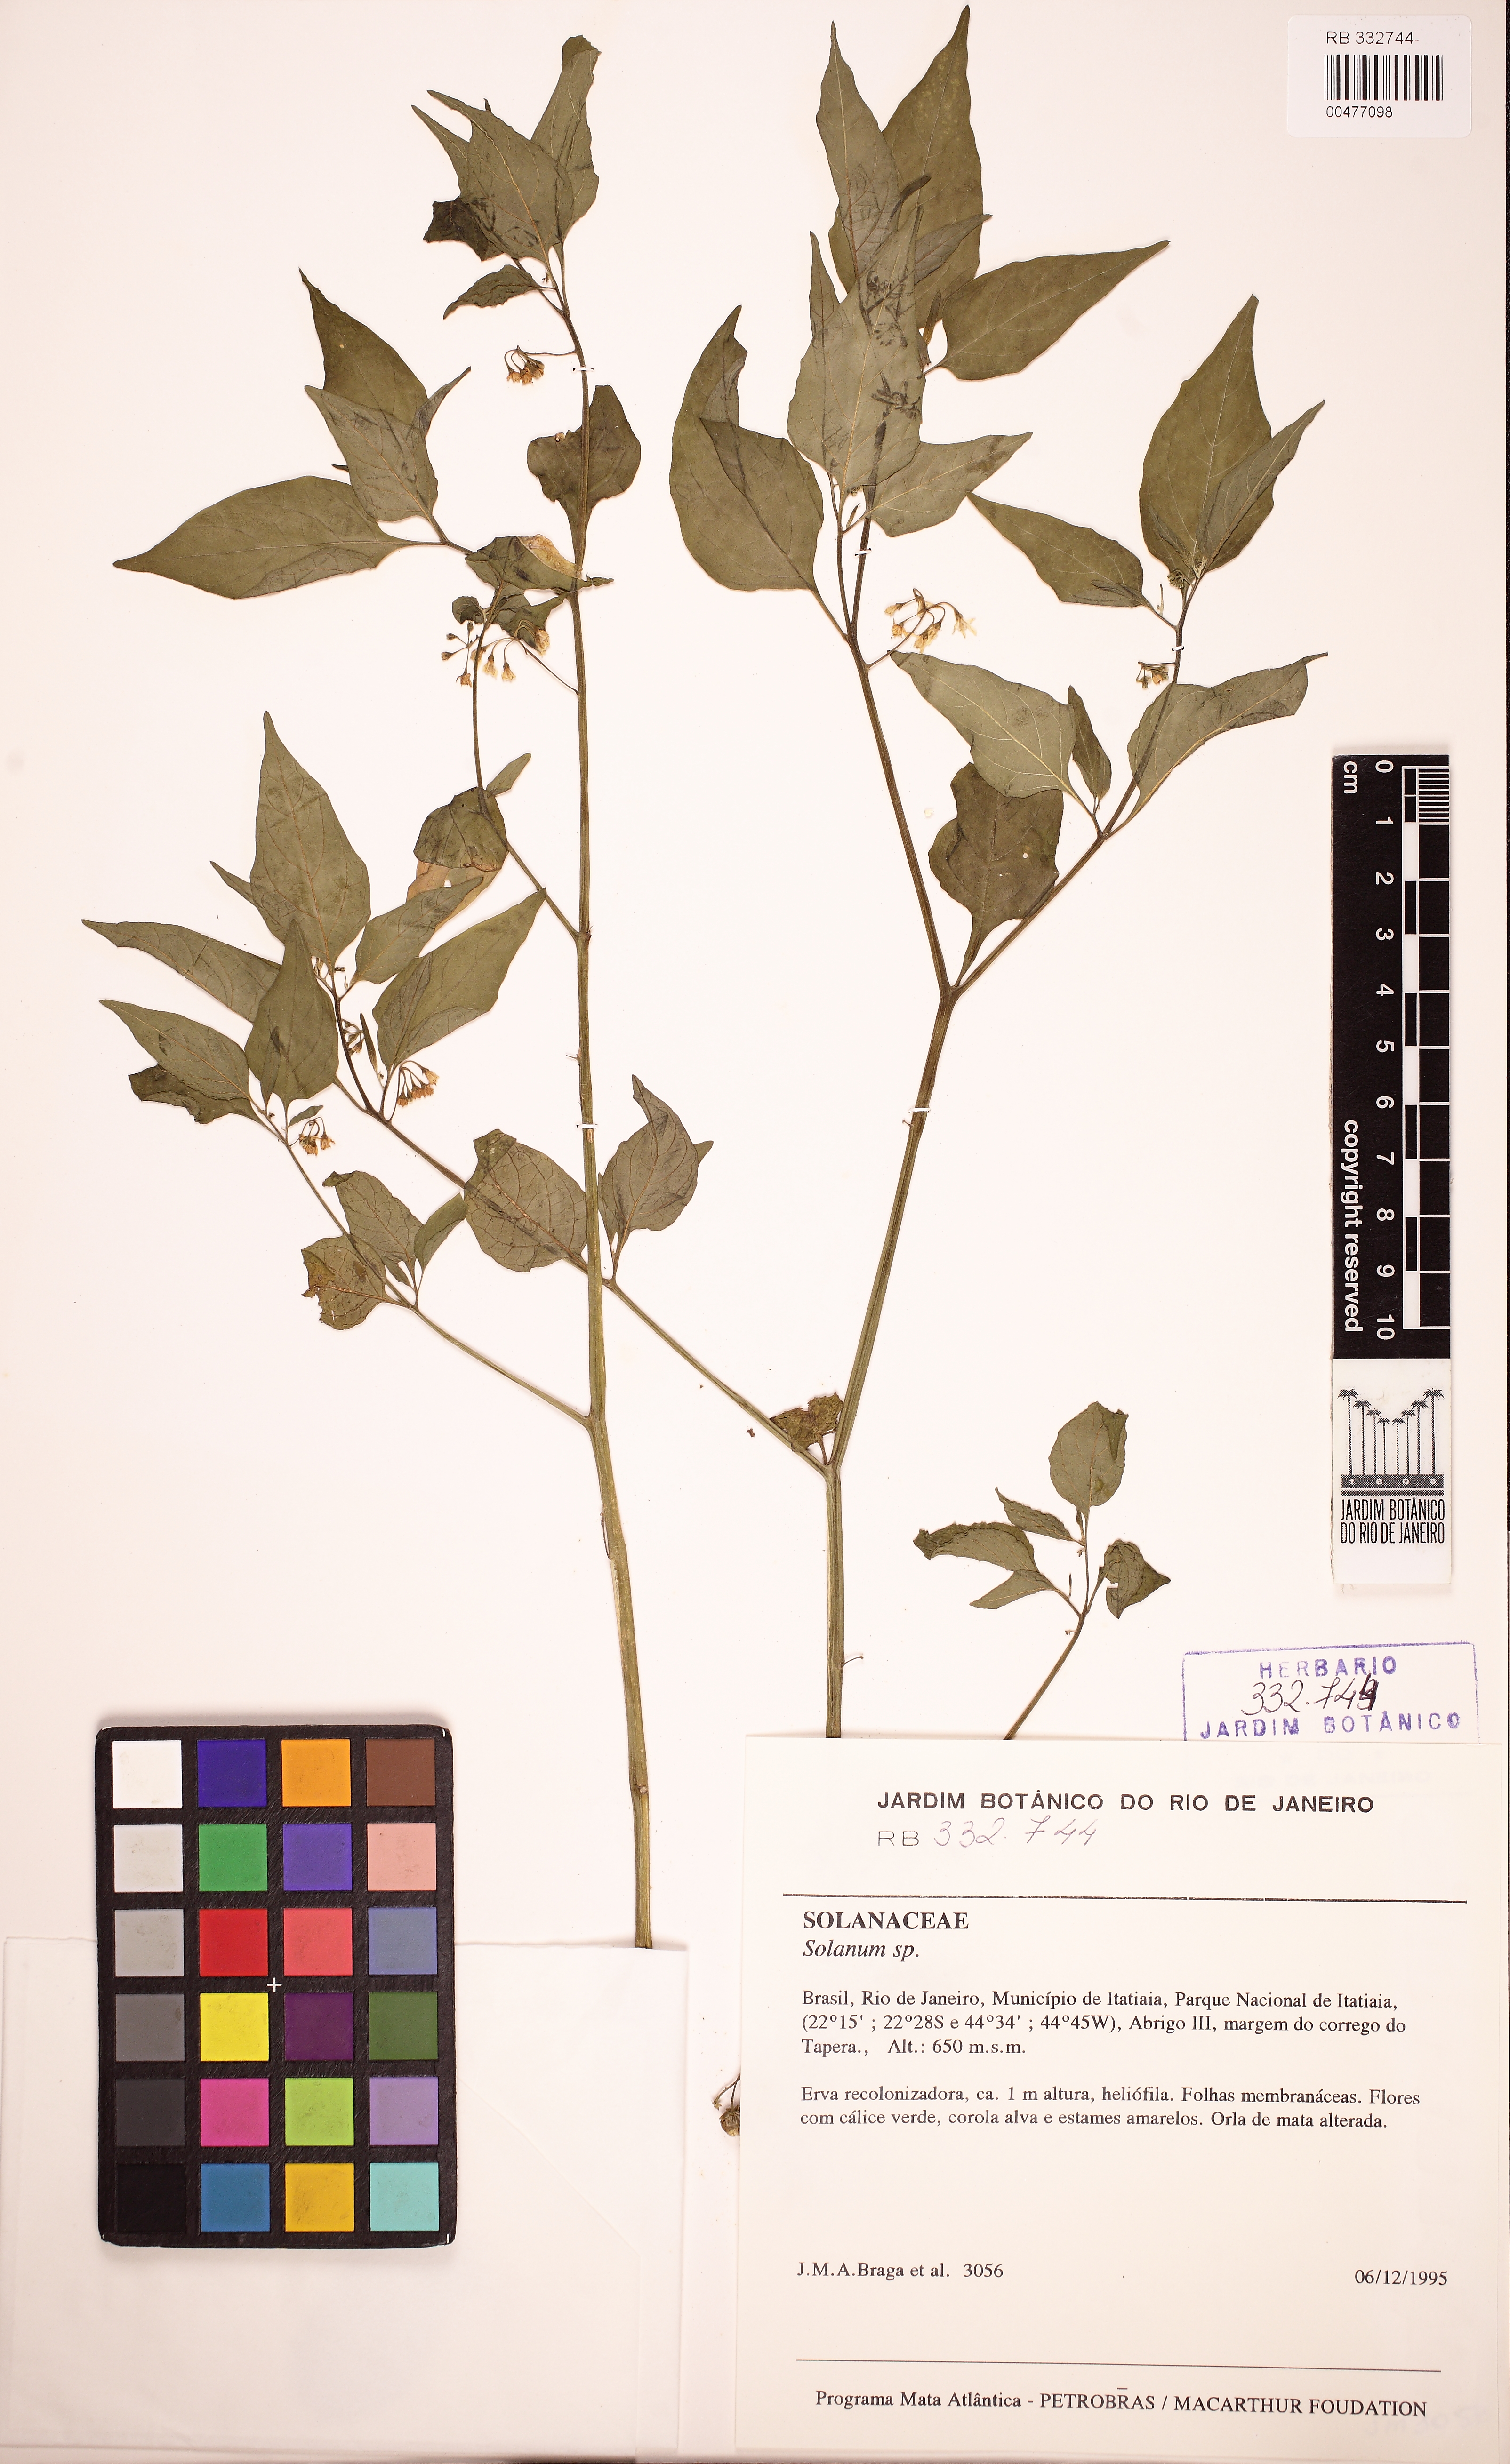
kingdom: Plantae
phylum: Tracheophyta
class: Magnoliopsida
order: Solanales
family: Solanaceae
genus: Solanum
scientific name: Solanum americanum
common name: American black nightshade
